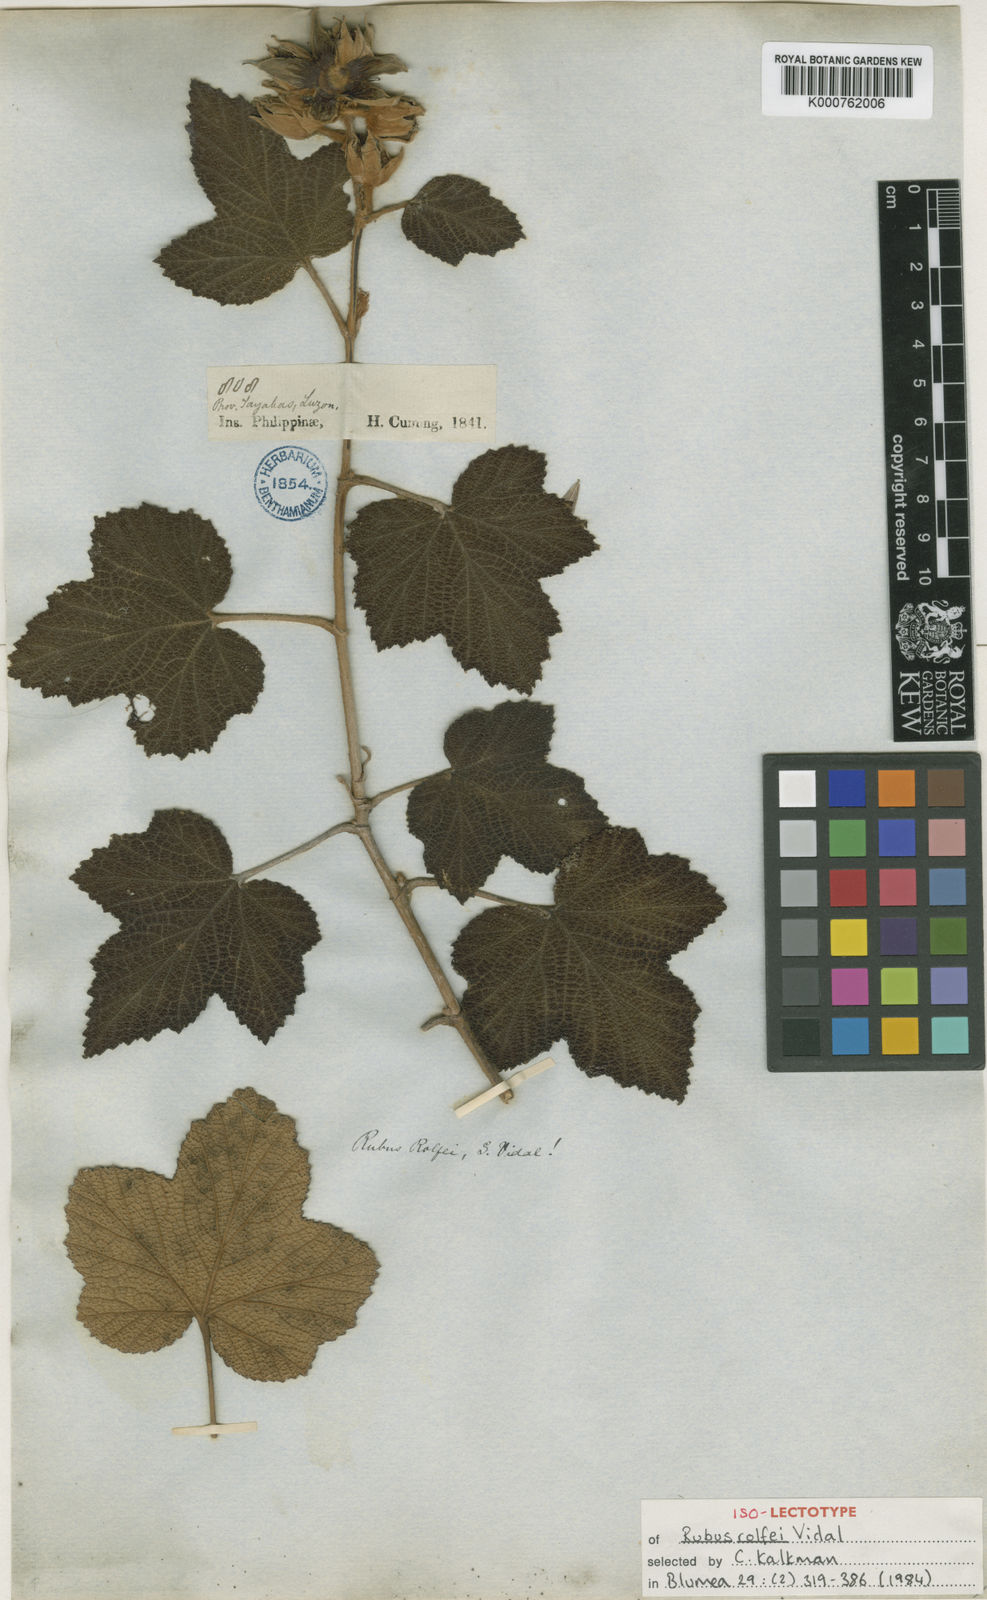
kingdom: Plantae
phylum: Tracheophyta
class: Magnoliopsida
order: Rosales
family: Rosaceae
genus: Rubus
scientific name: Rubus rolfei
